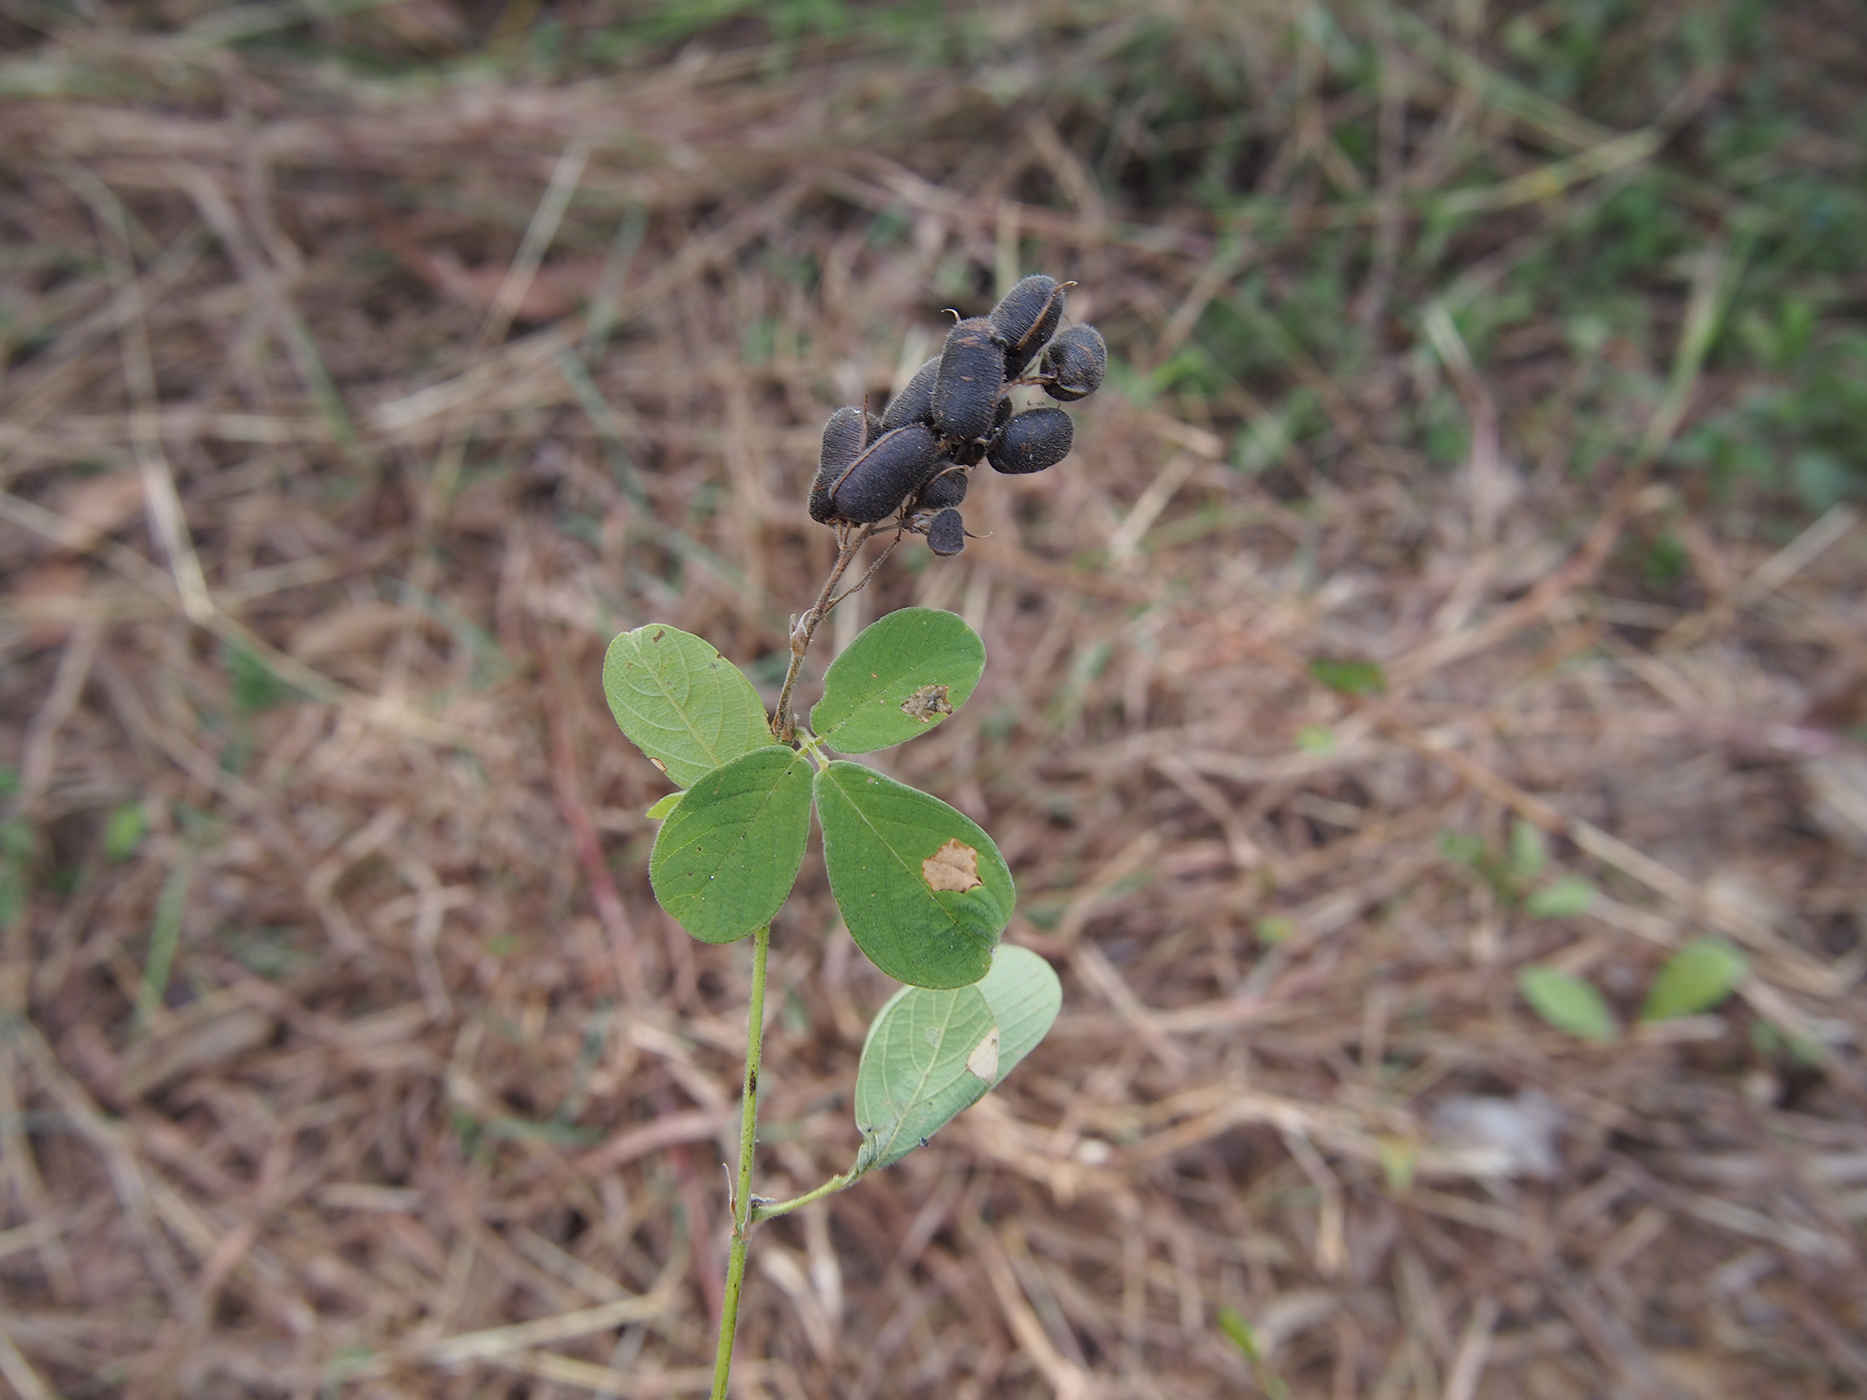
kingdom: Plantae
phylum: Tracheophyta
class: Magnoliopsida
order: Fabales
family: Fabaceae
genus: Pycnospora
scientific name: Pycnospora lutescens
